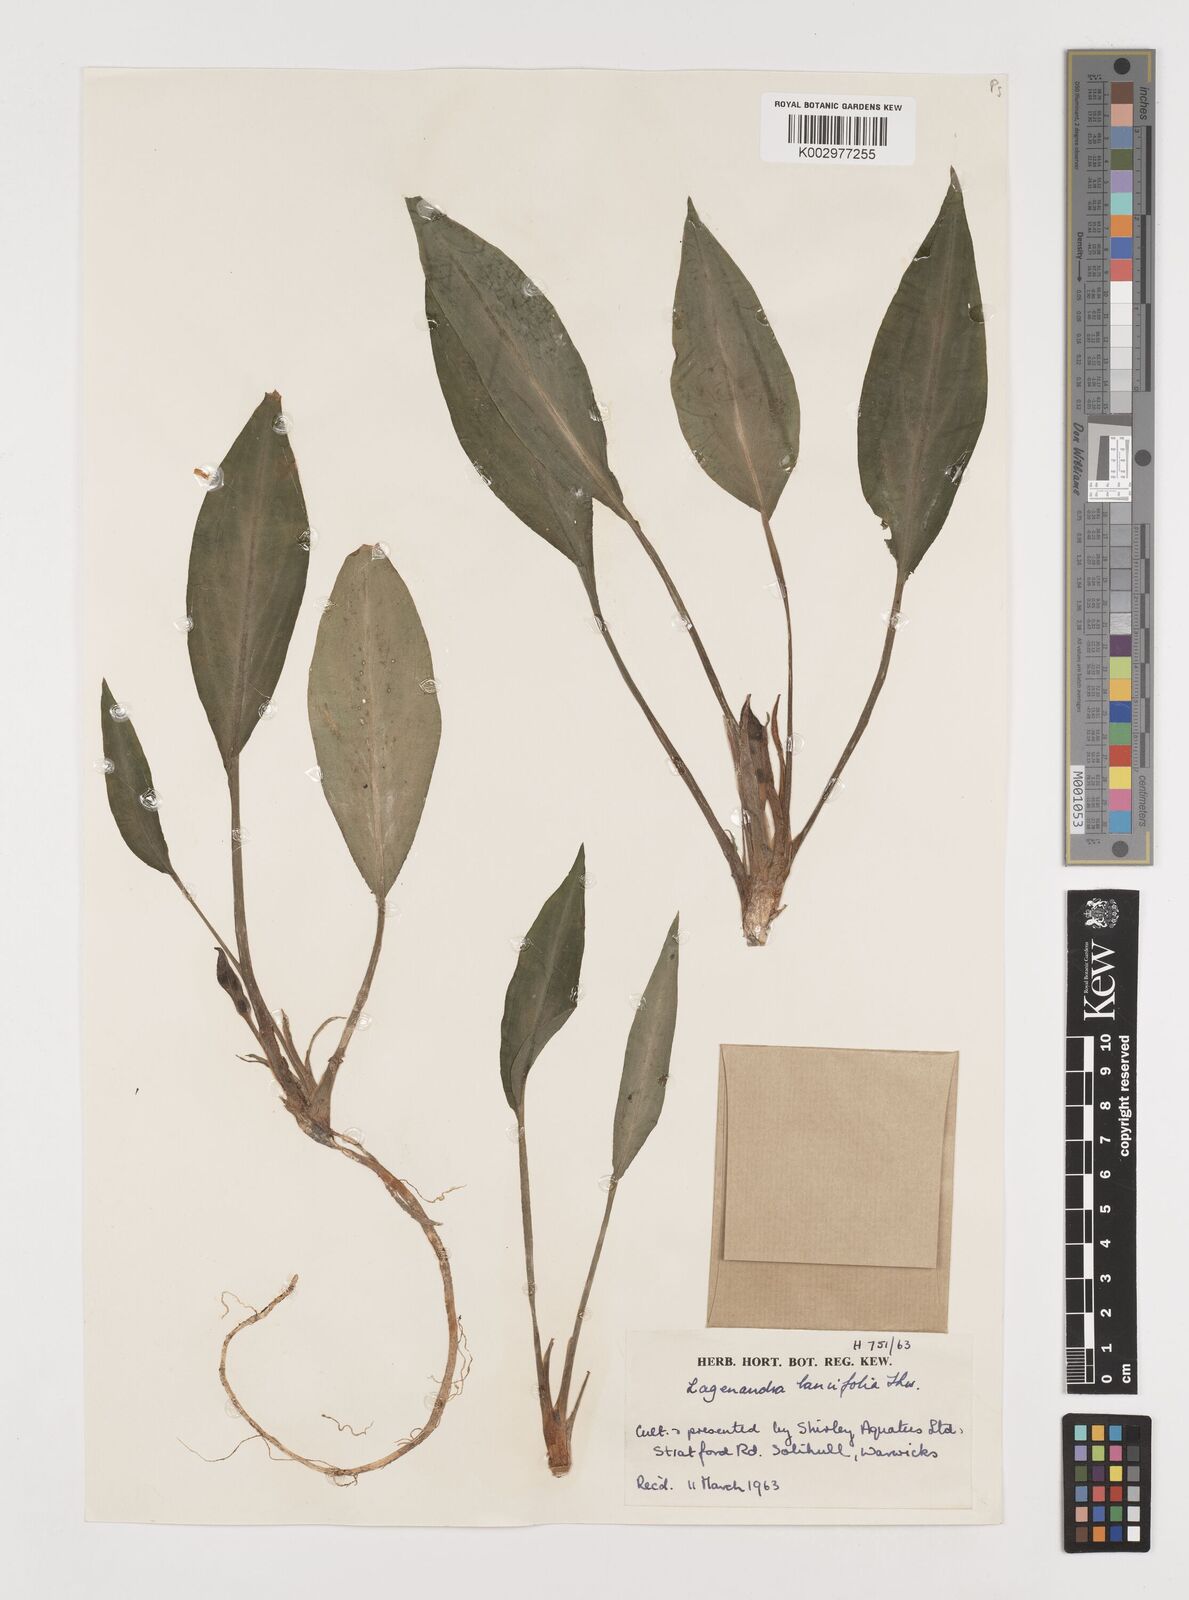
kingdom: Plantae
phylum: Tracheophyta
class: Liliopsida
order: Alismatales
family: Araceae
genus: Lagenandra
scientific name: Lagenandra lancifolia
